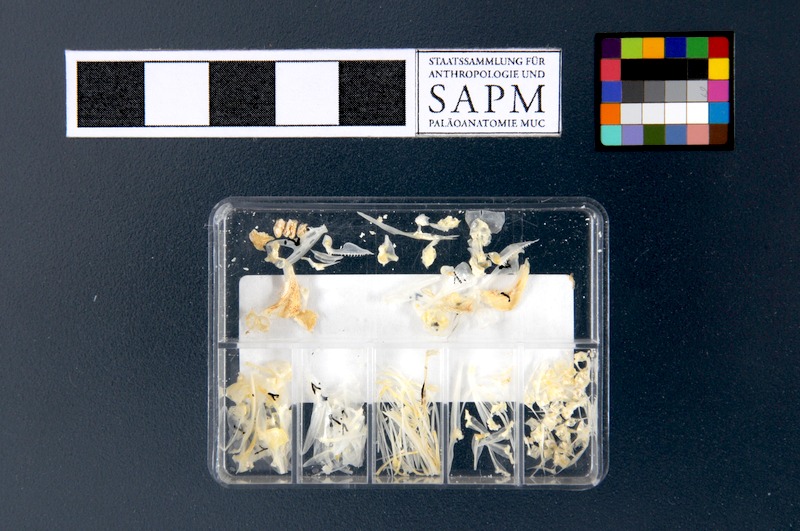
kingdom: Animalia
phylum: Chordata
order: Perciformes
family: Serranidae
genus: Anthias
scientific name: Anthias anthias
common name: Swallowtail seaperch
